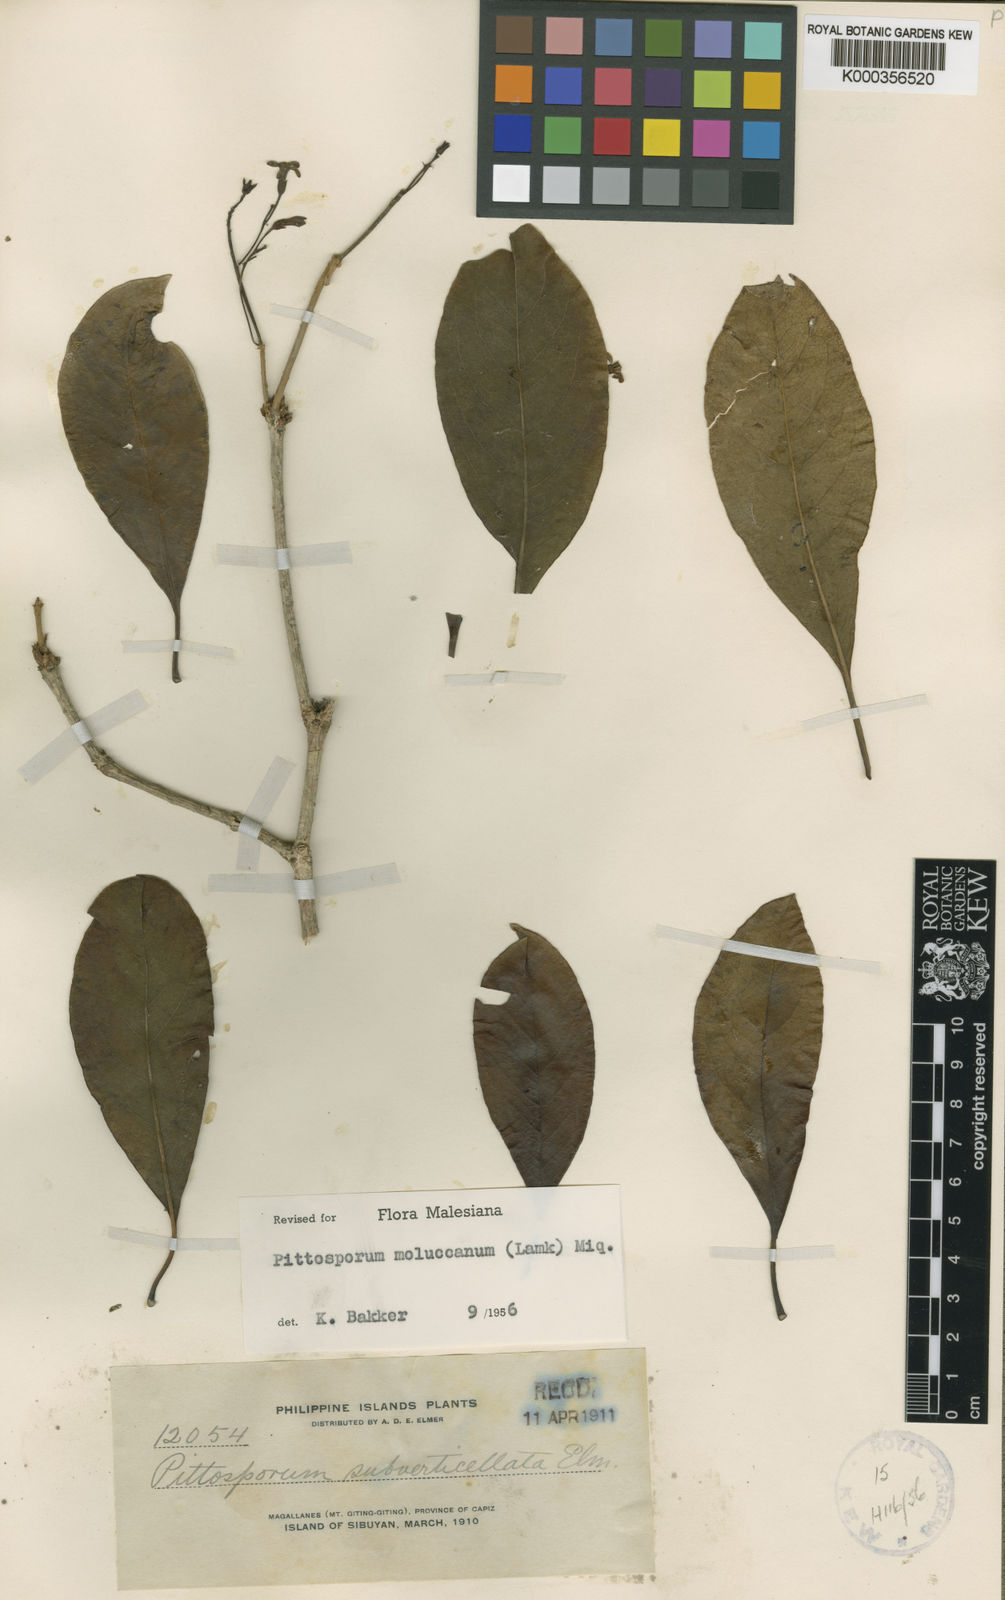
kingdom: Plantae
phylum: Tracheophyta
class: Magnoliopsida
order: Apiales
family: Pittosporaceae
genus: Pittosporum
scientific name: Pittosporum moluccanum
